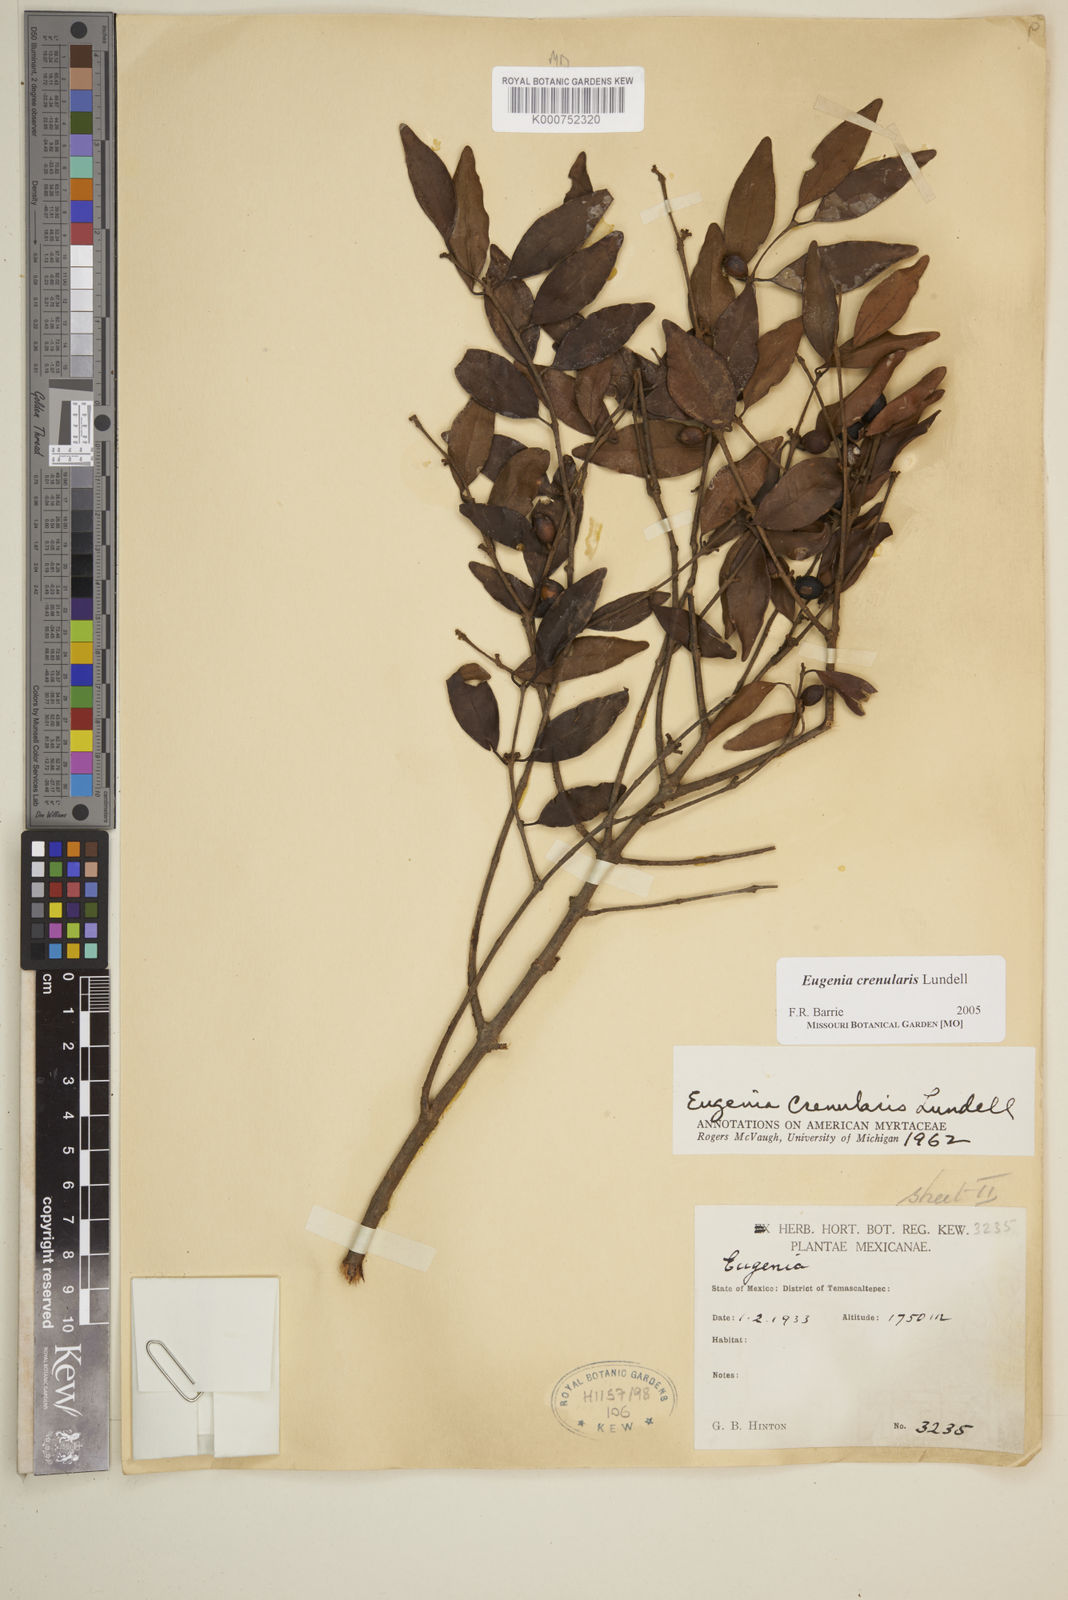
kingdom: Plantae
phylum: Tracheophyta
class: Magnoliopsida
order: Myrtales
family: Myrtaceae
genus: Eugenia
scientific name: Eugenia crenularis
